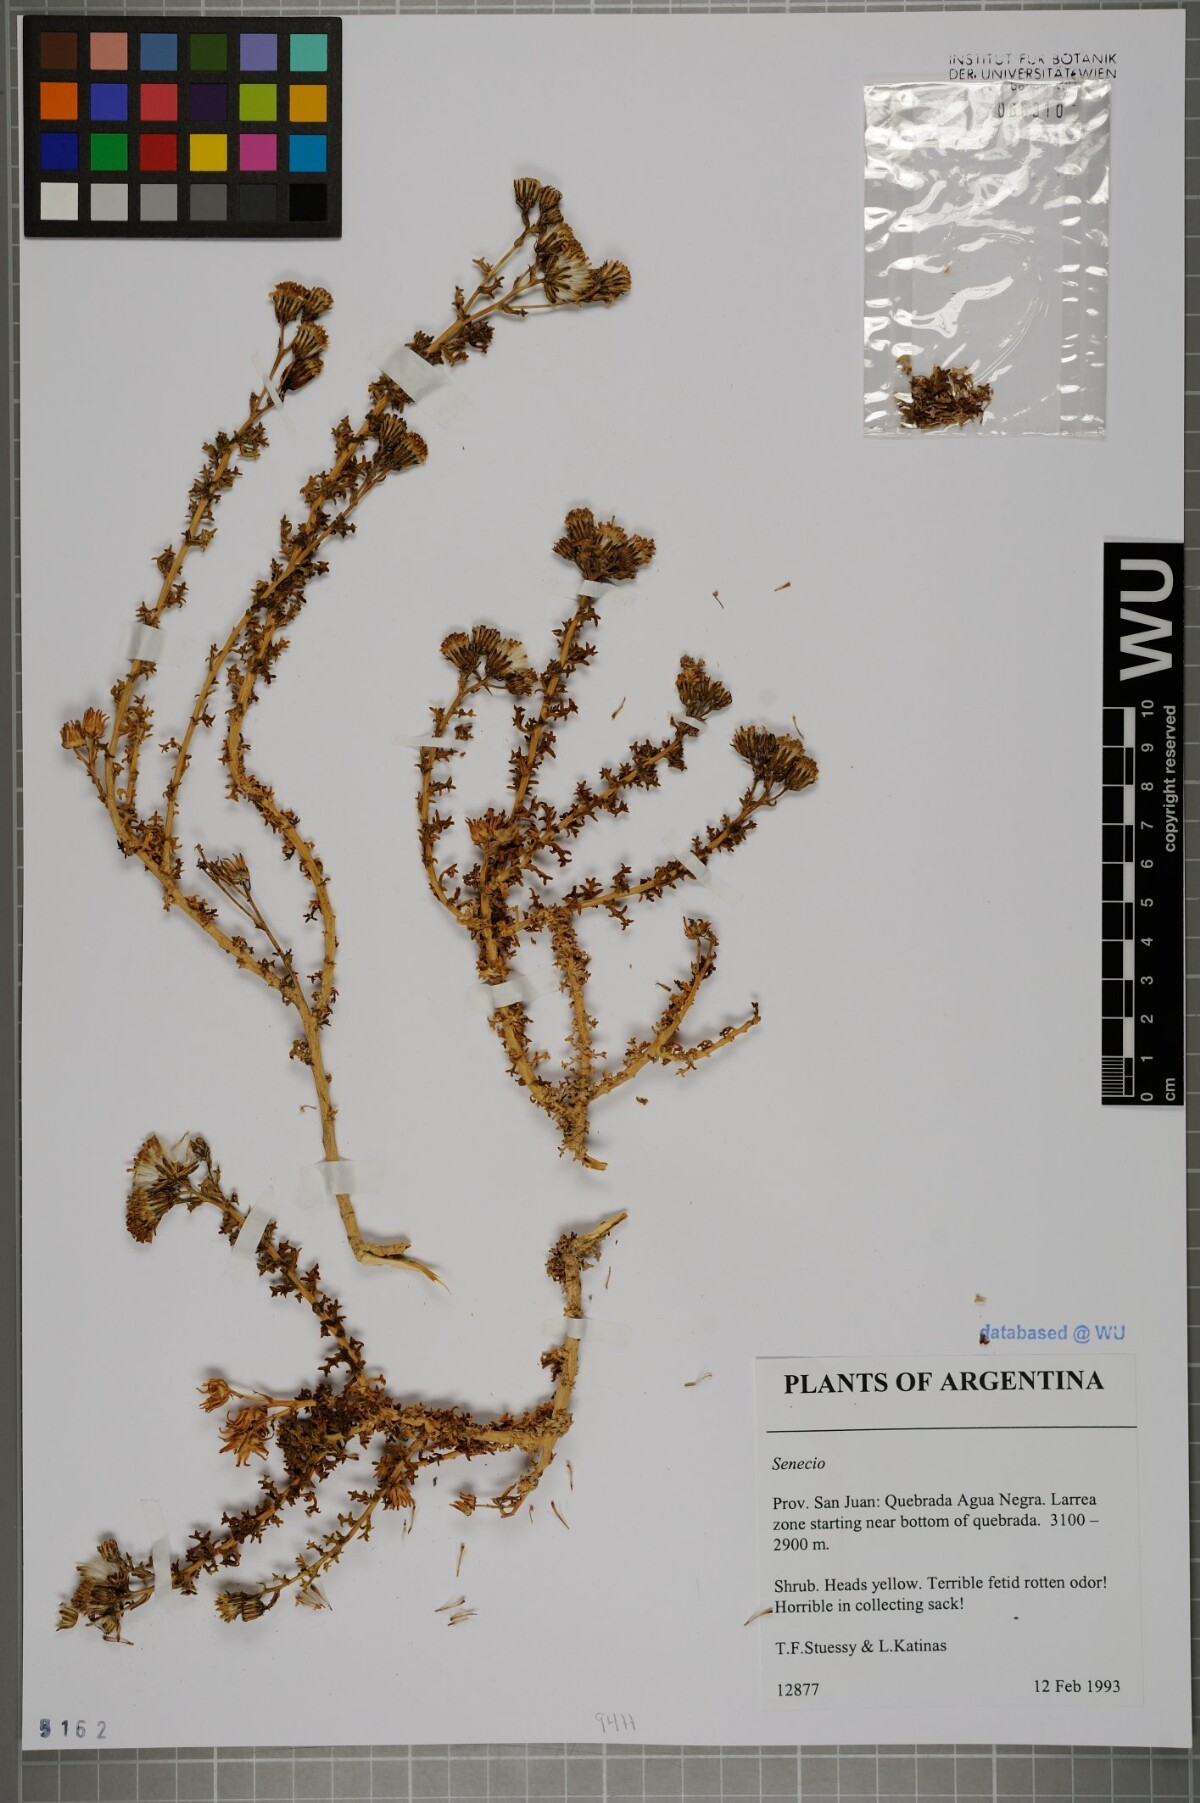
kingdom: Plantae
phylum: Tracheophyta
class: Magnoliopsida
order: Asterales
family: Asteraceae
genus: Senecio
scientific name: Senecio
